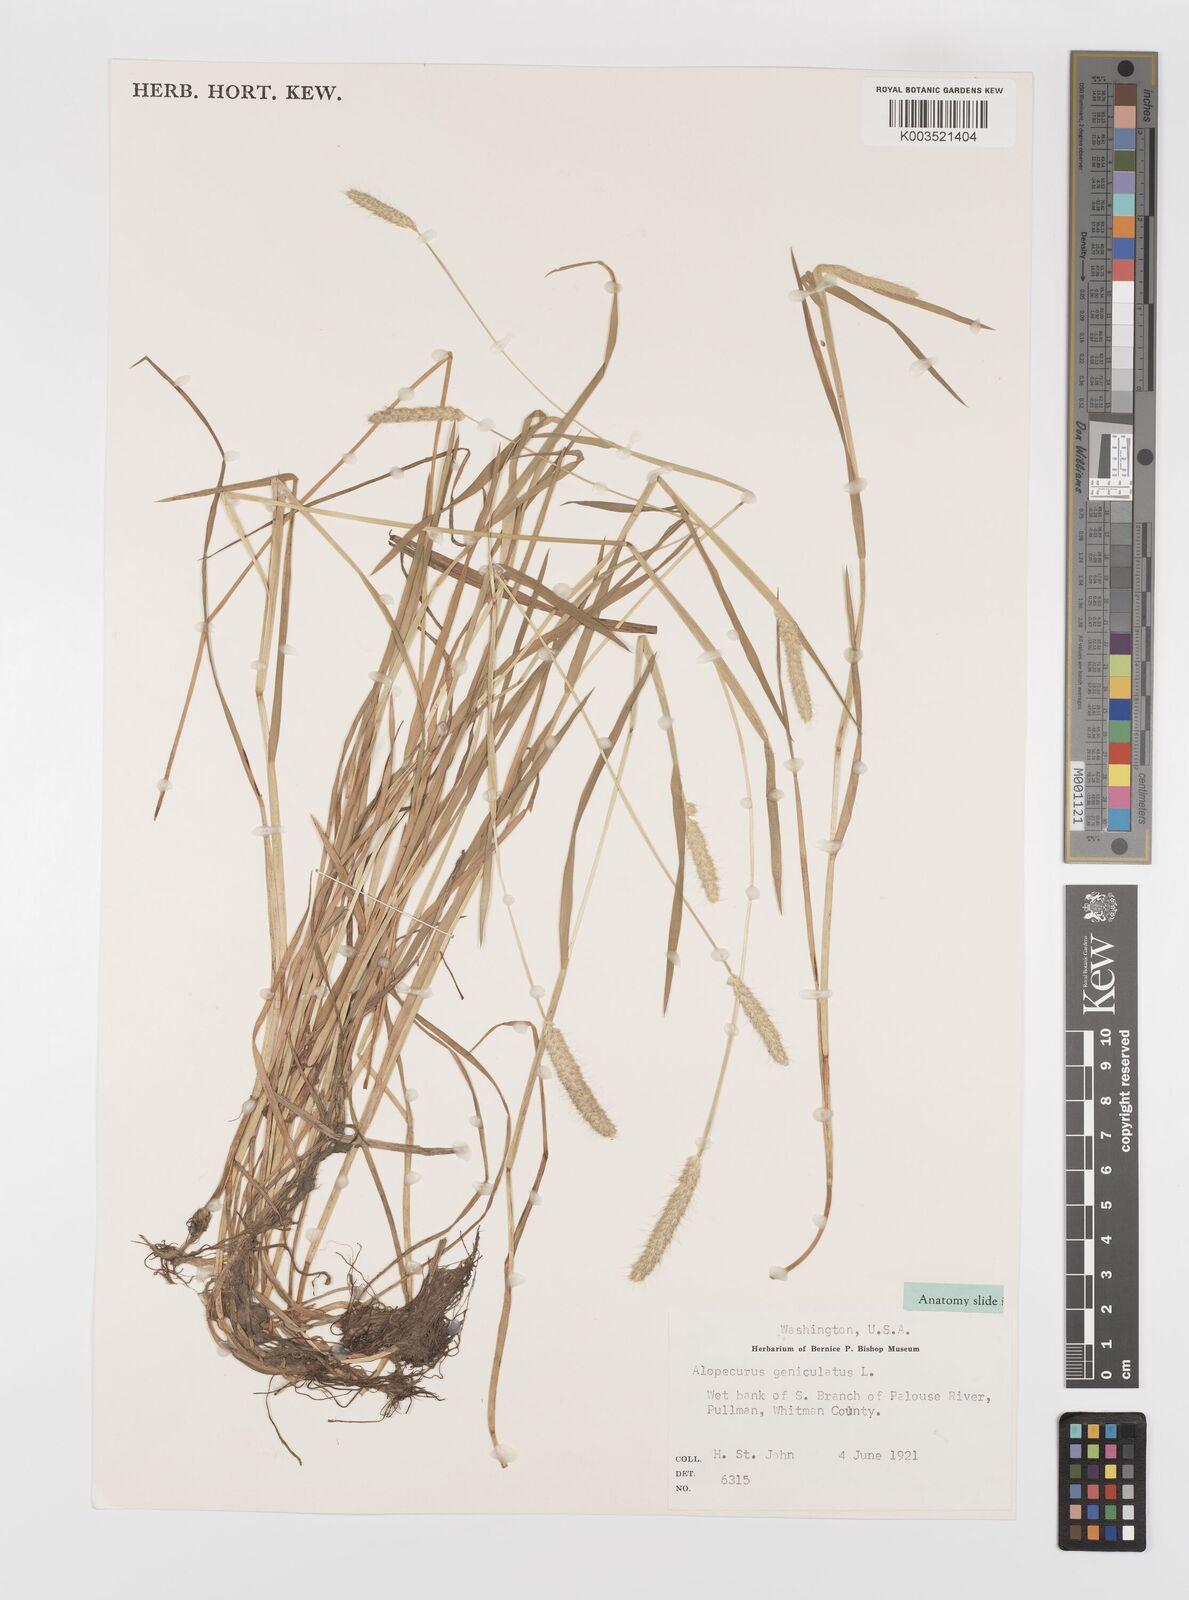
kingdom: Plantae
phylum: Tracheophyta
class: Liliopsida
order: Poales
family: Poaceae
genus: Alopecurus
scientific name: Alopecurus geniculatus
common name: Water foxtail
